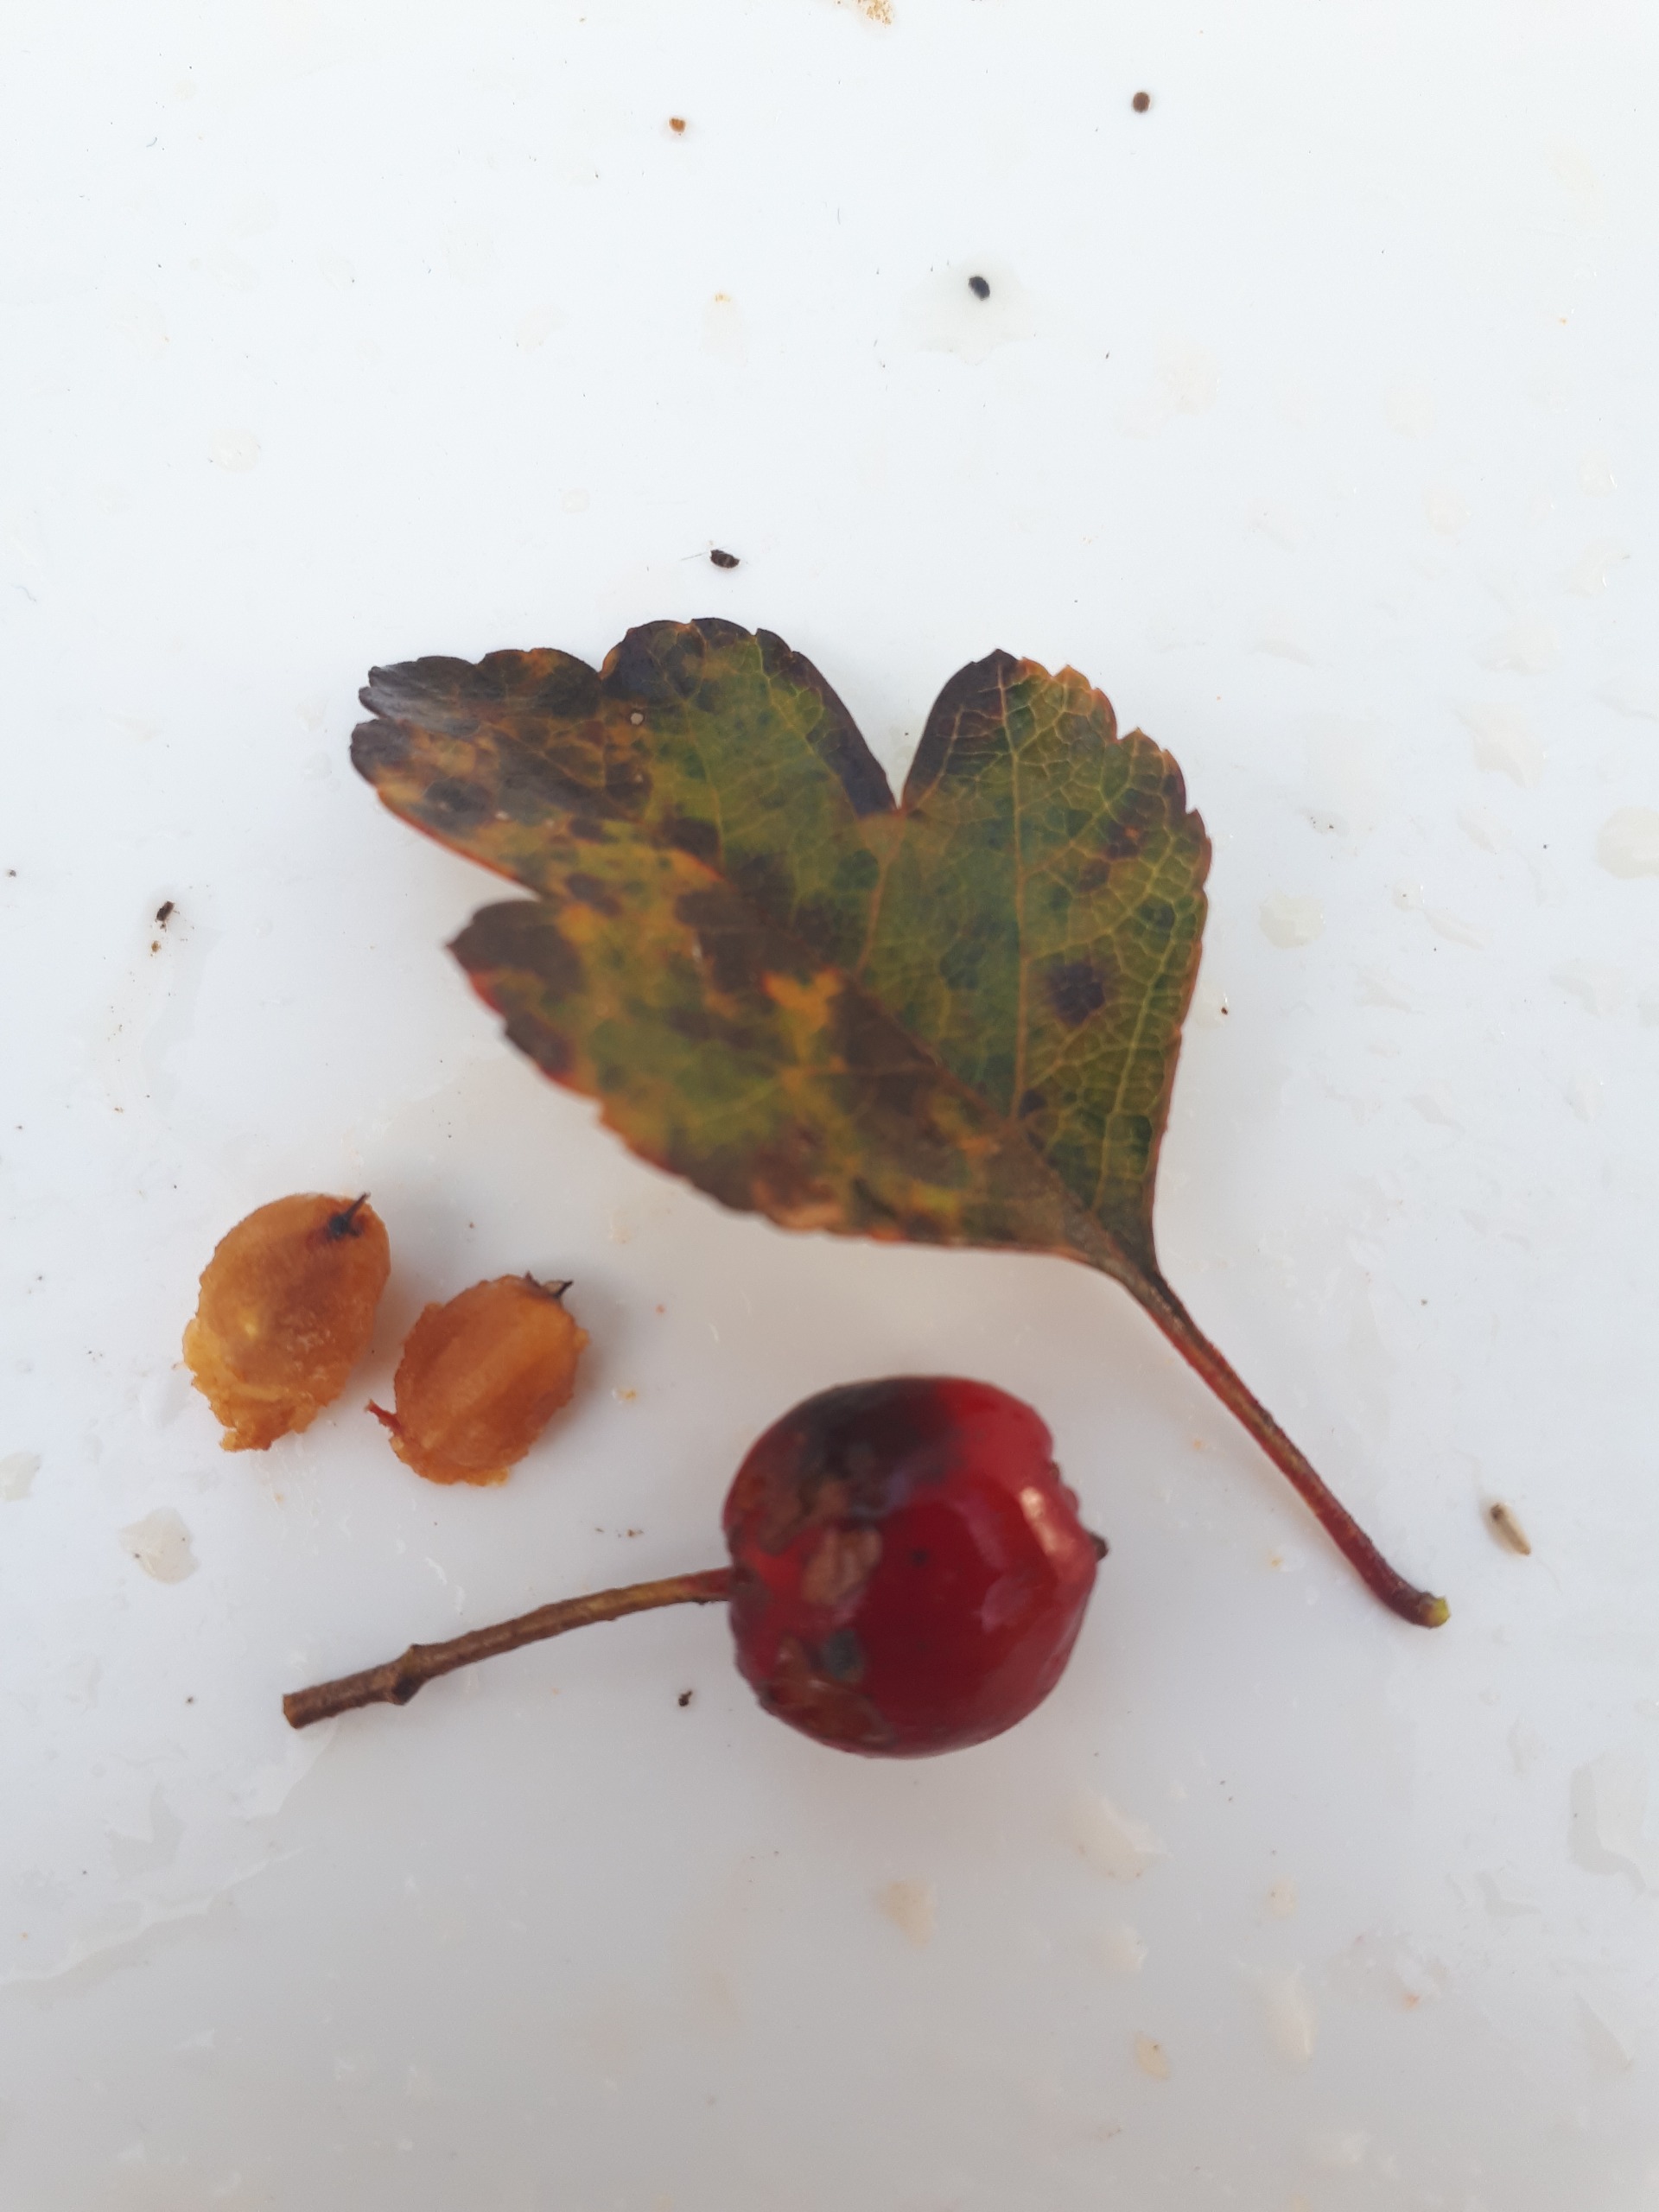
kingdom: Plantae
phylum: Tracheophyta
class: Magnoliopsida
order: Rosales
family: Rosaceae
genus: Crataegus
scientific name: Crataegus laevigata
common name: Almindelig hvidtjørn
